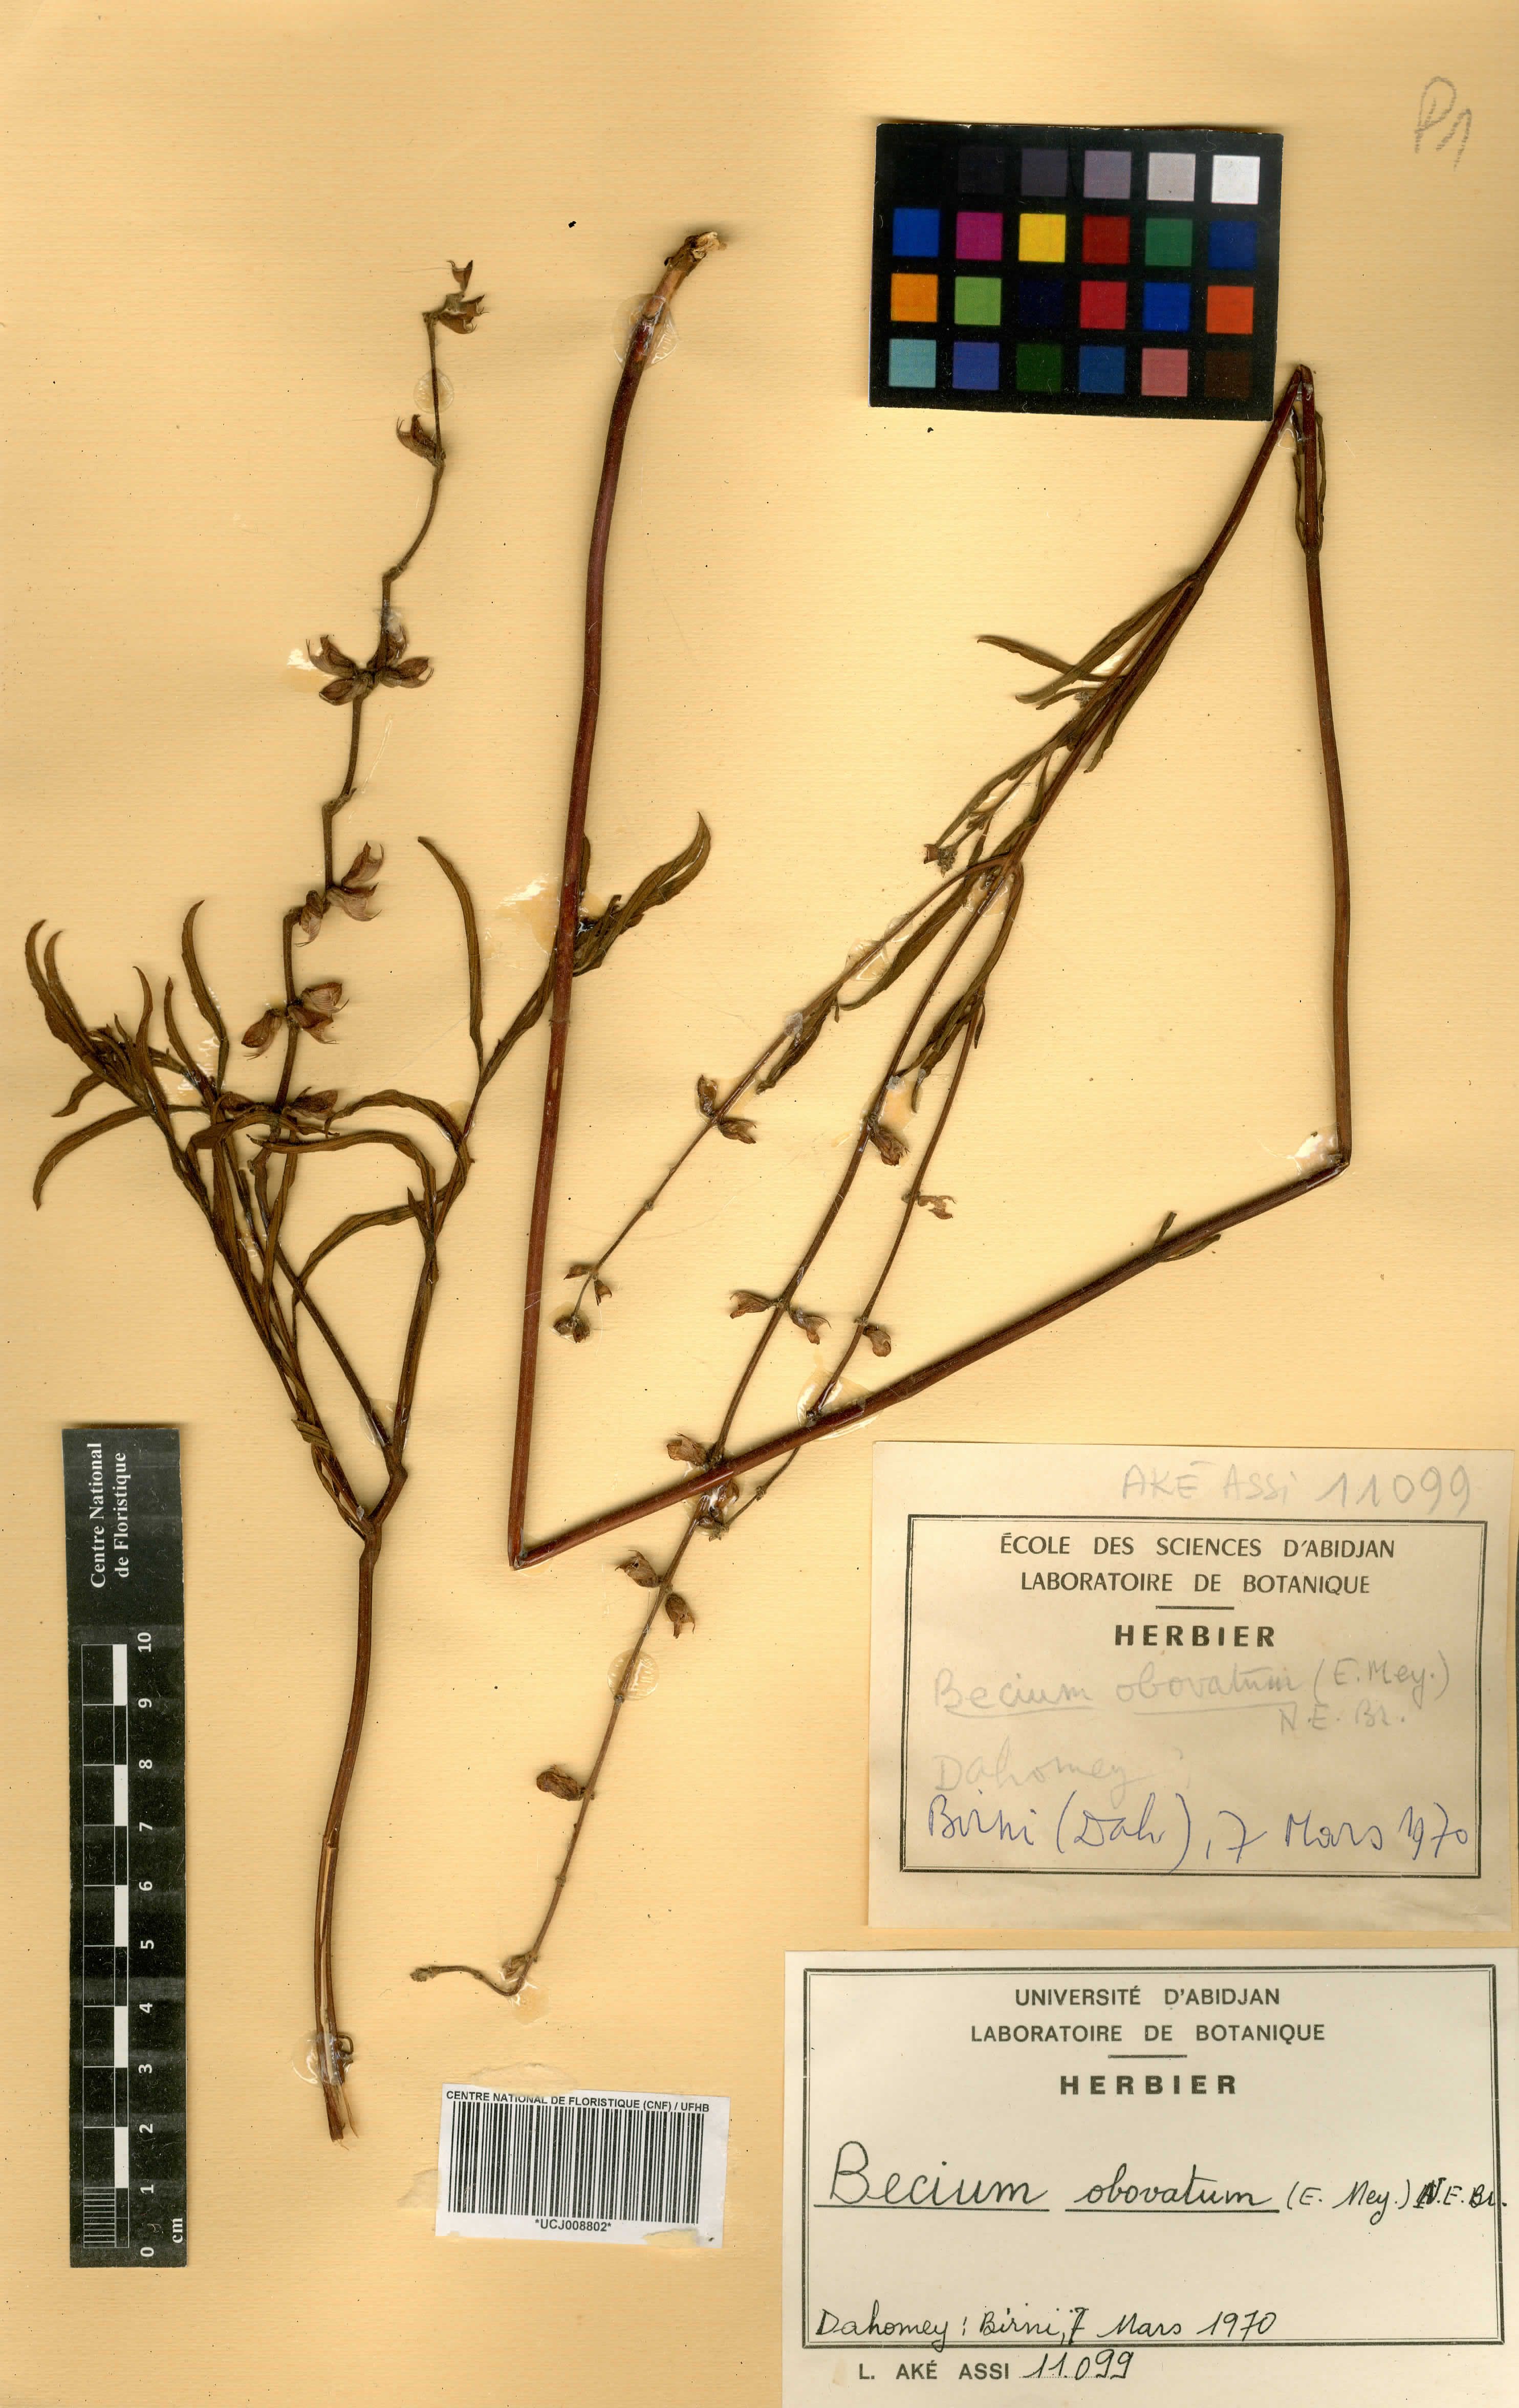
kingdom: Plantae
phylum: Tracheophyta
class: Magnoliopsida
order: Lamiales
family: Lamiaceae
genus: Ocimum
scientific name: Ocimum obovatum
